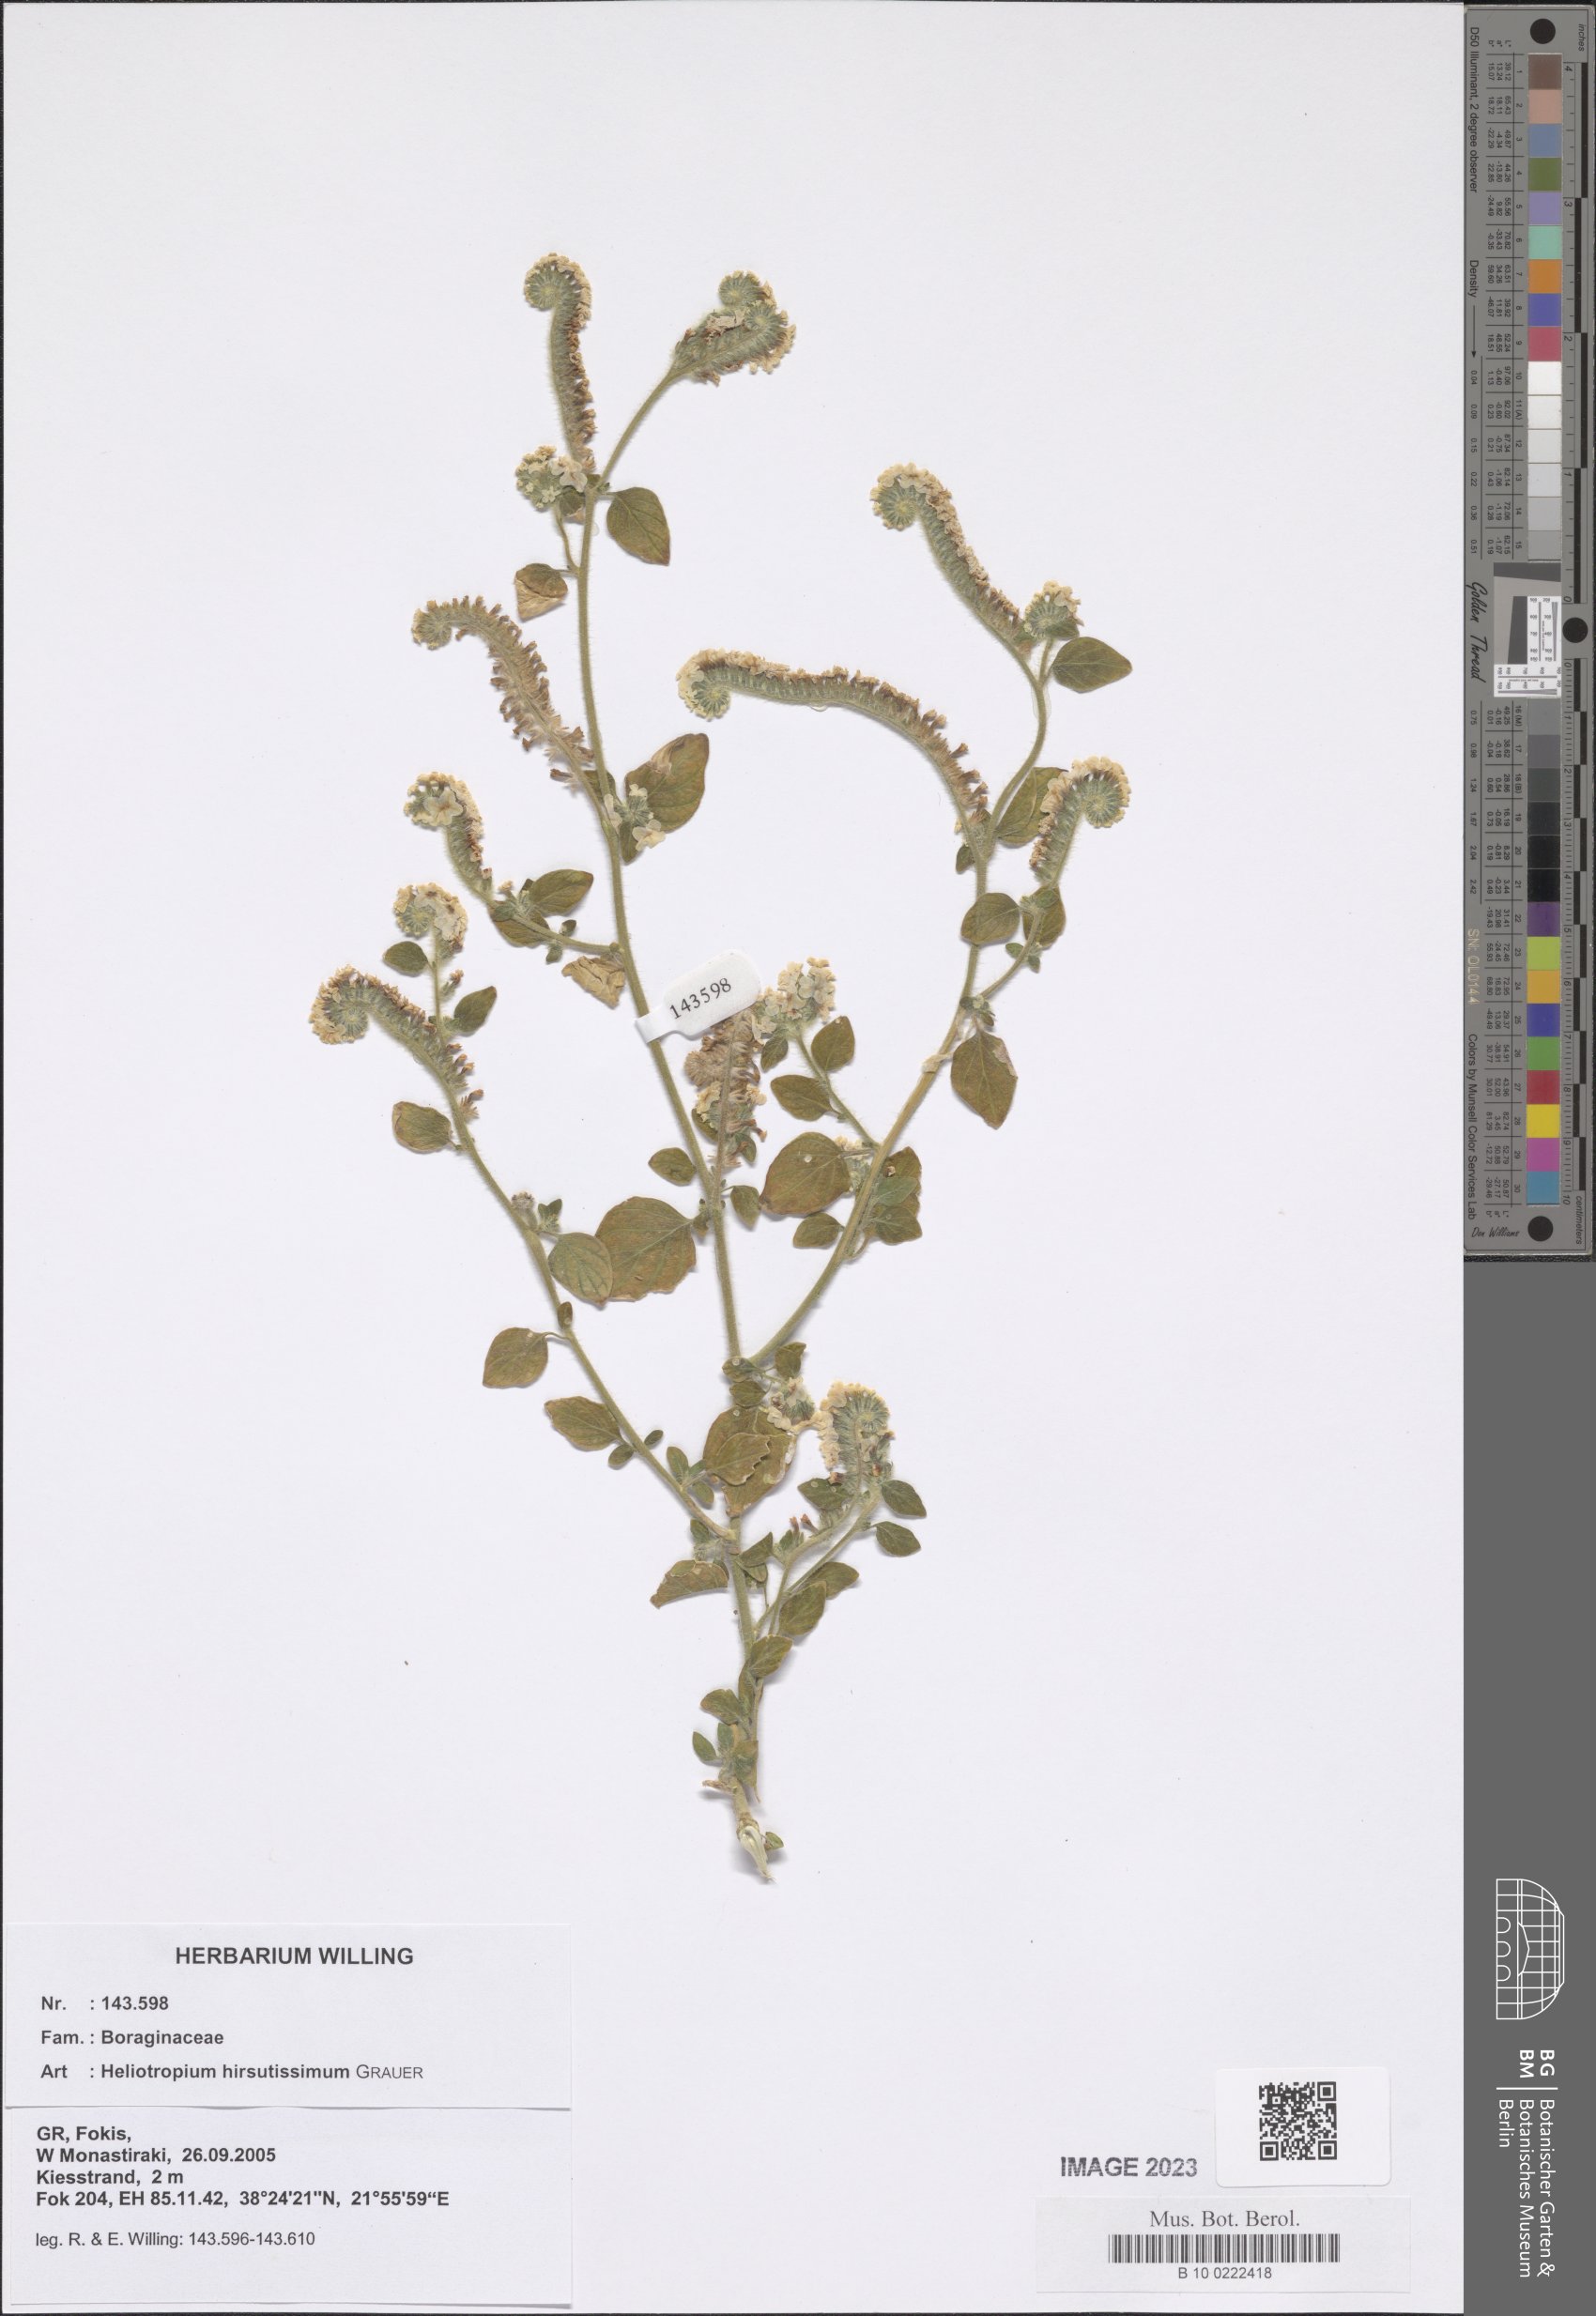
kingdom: Plantae
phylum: Tracheophyta
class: Magnoliopsida
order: Boraginales
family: Heliotropiaceae
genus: Heliotropium
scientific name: Heliotropium hirsutissimum
